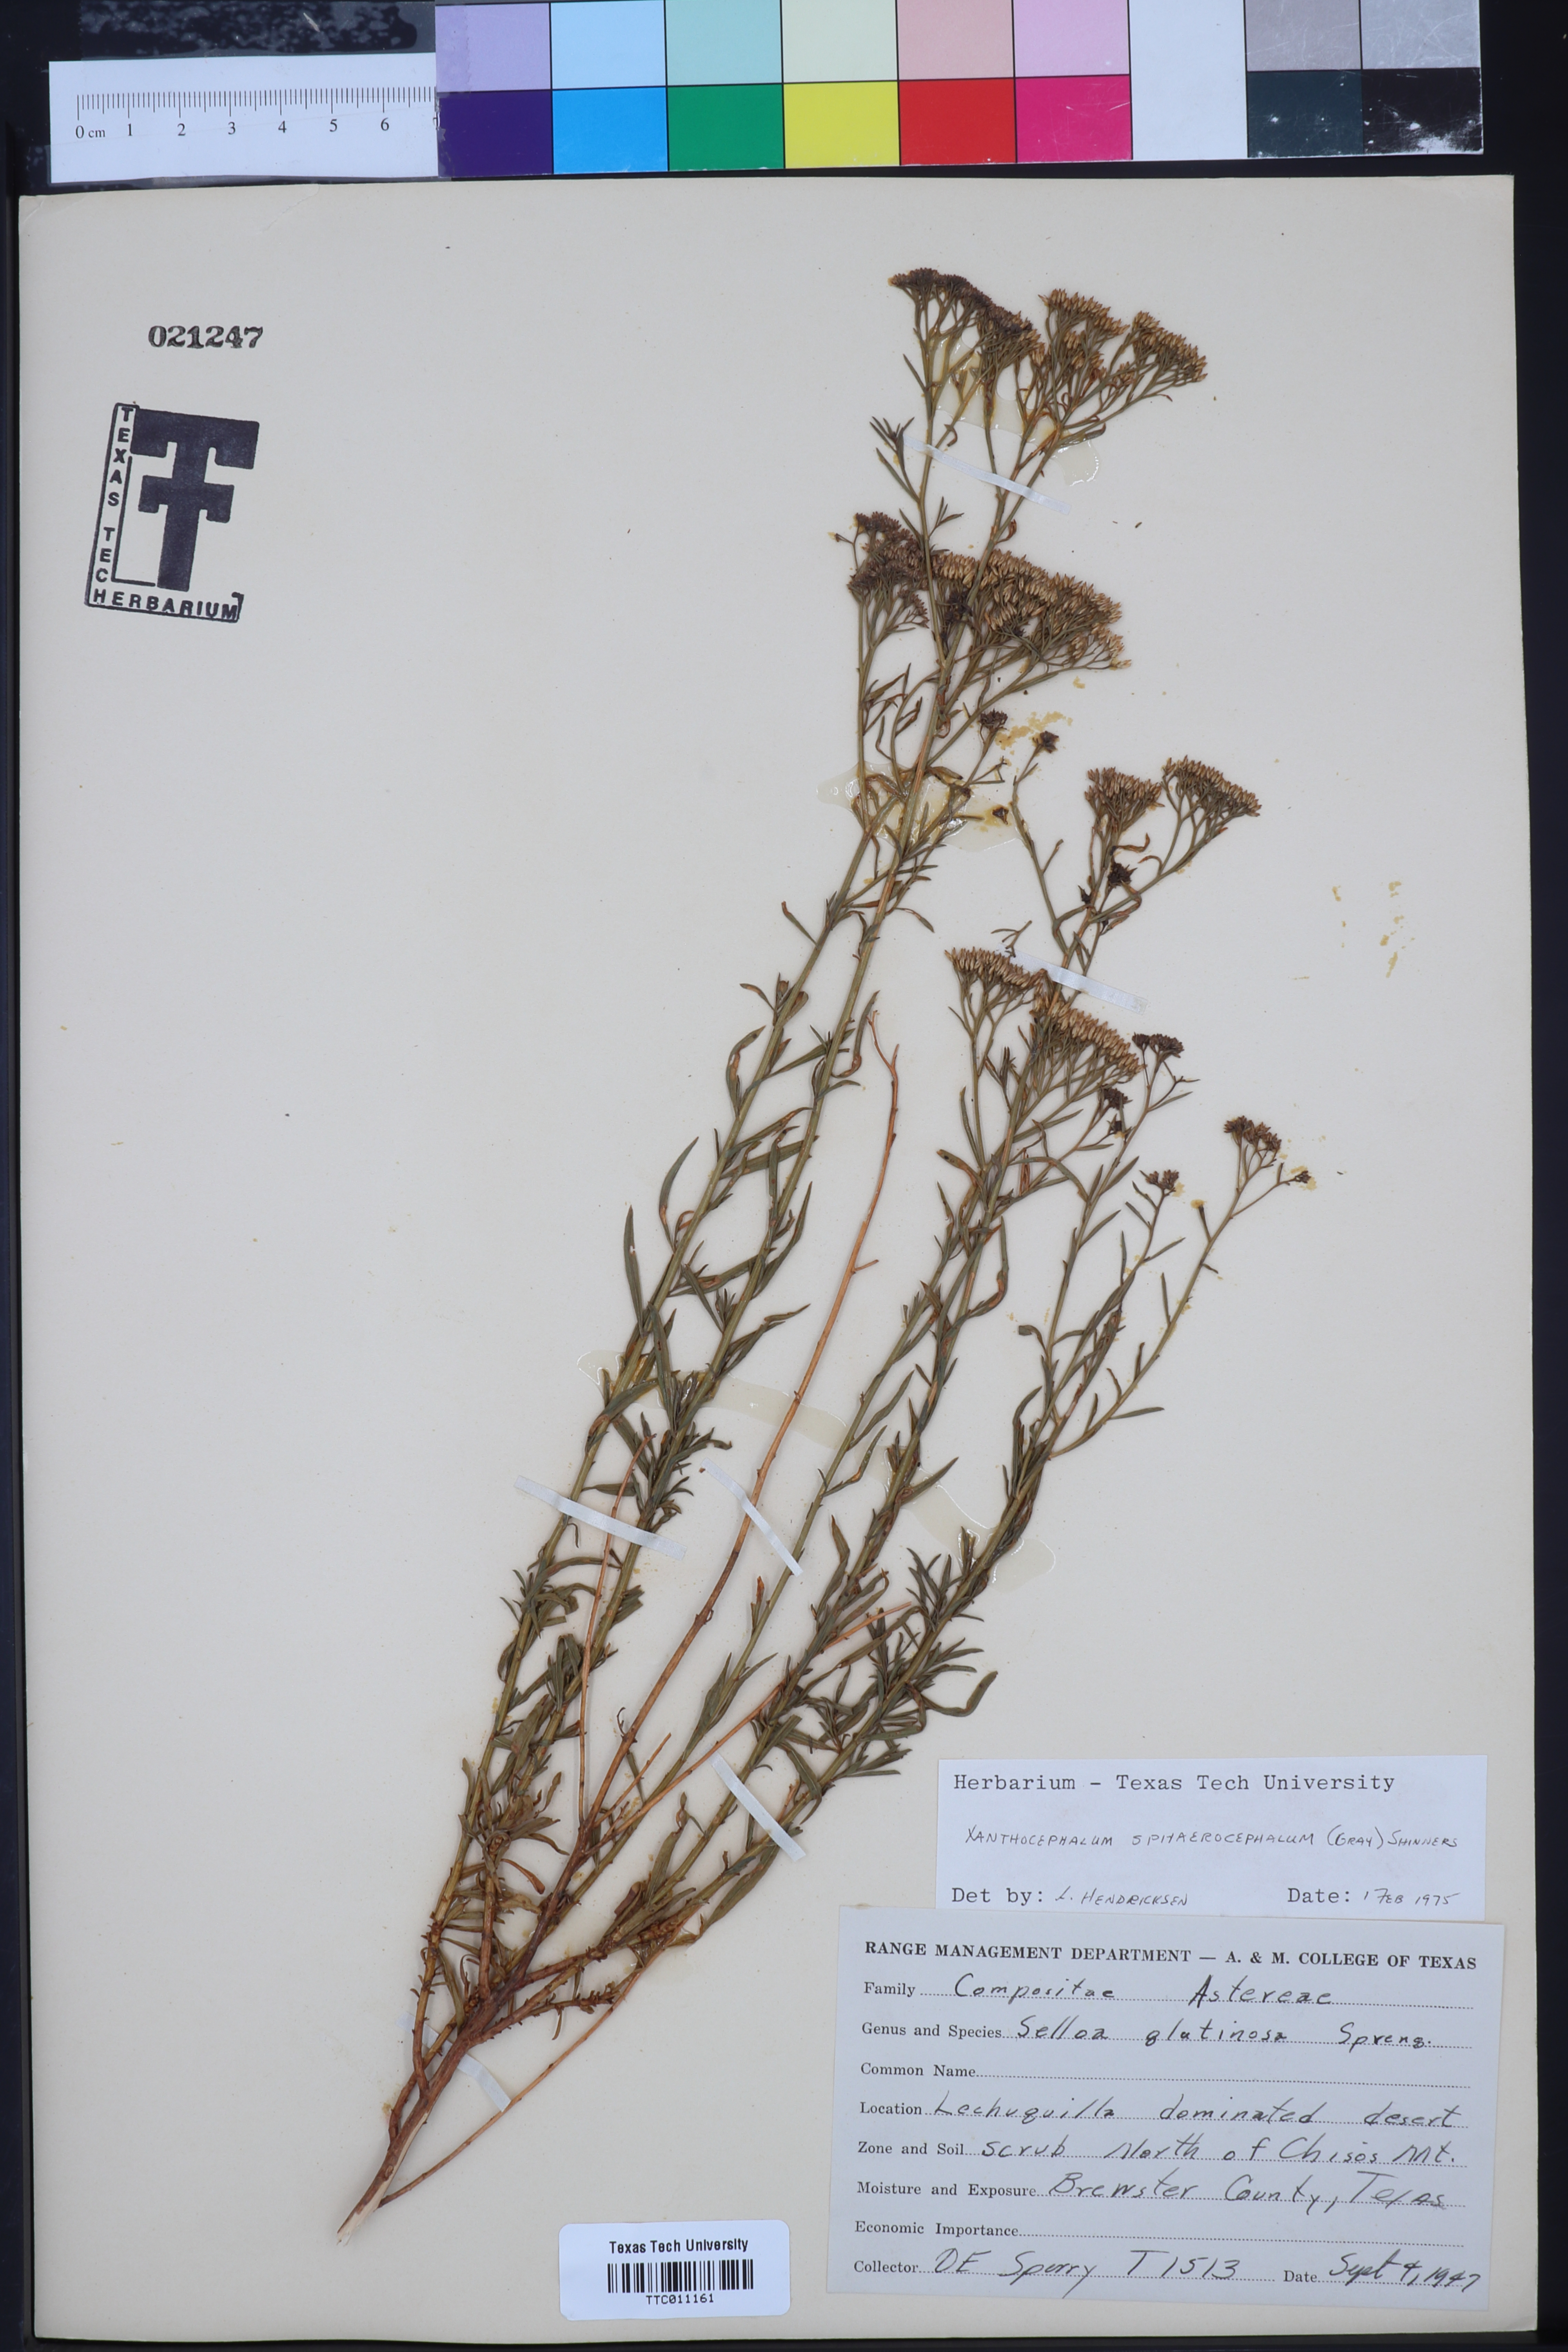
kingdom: Plantae
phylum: Tracheophyta
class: Magnoliopsida
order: Asterales
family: Asteraceae
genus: Gutierrezia
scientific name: Gutierrezia sphaerocephala
